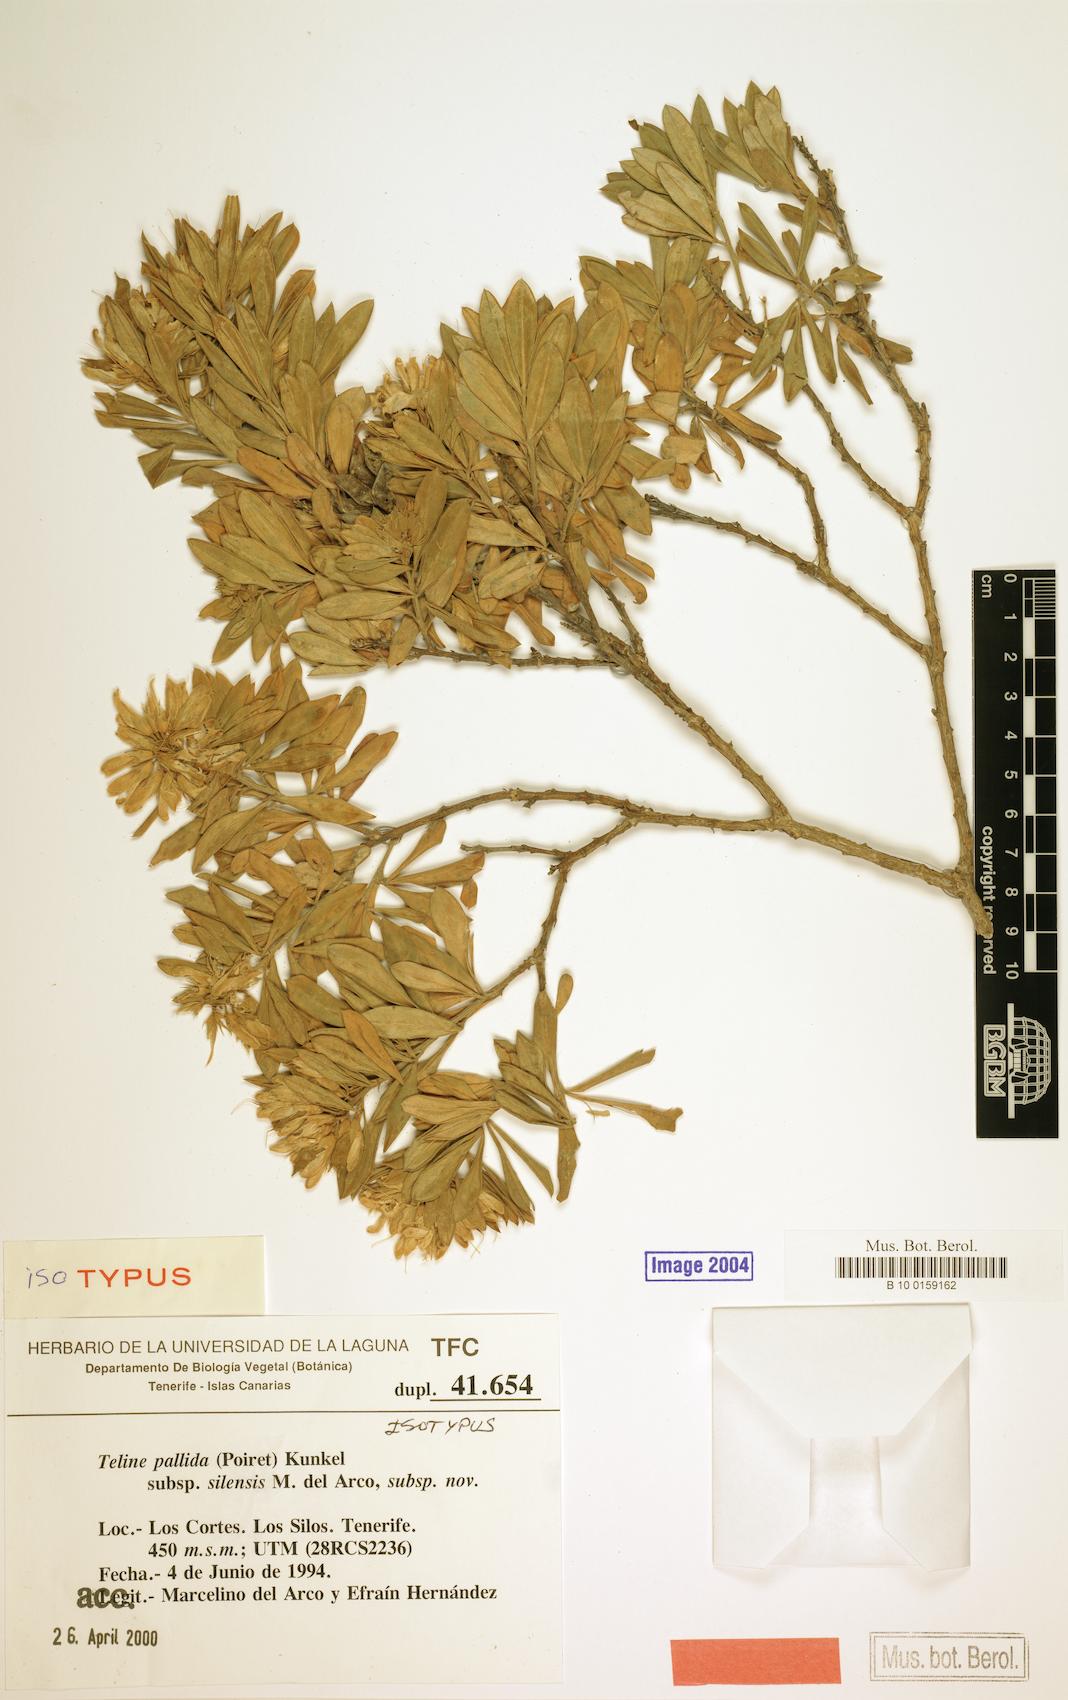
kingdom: Plantae
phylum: Tracheophyta
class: Magnoliopsida
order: Fabales
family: Fabaceae
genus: Genista
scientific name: Genista linifolia
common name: Mediterranean broom
